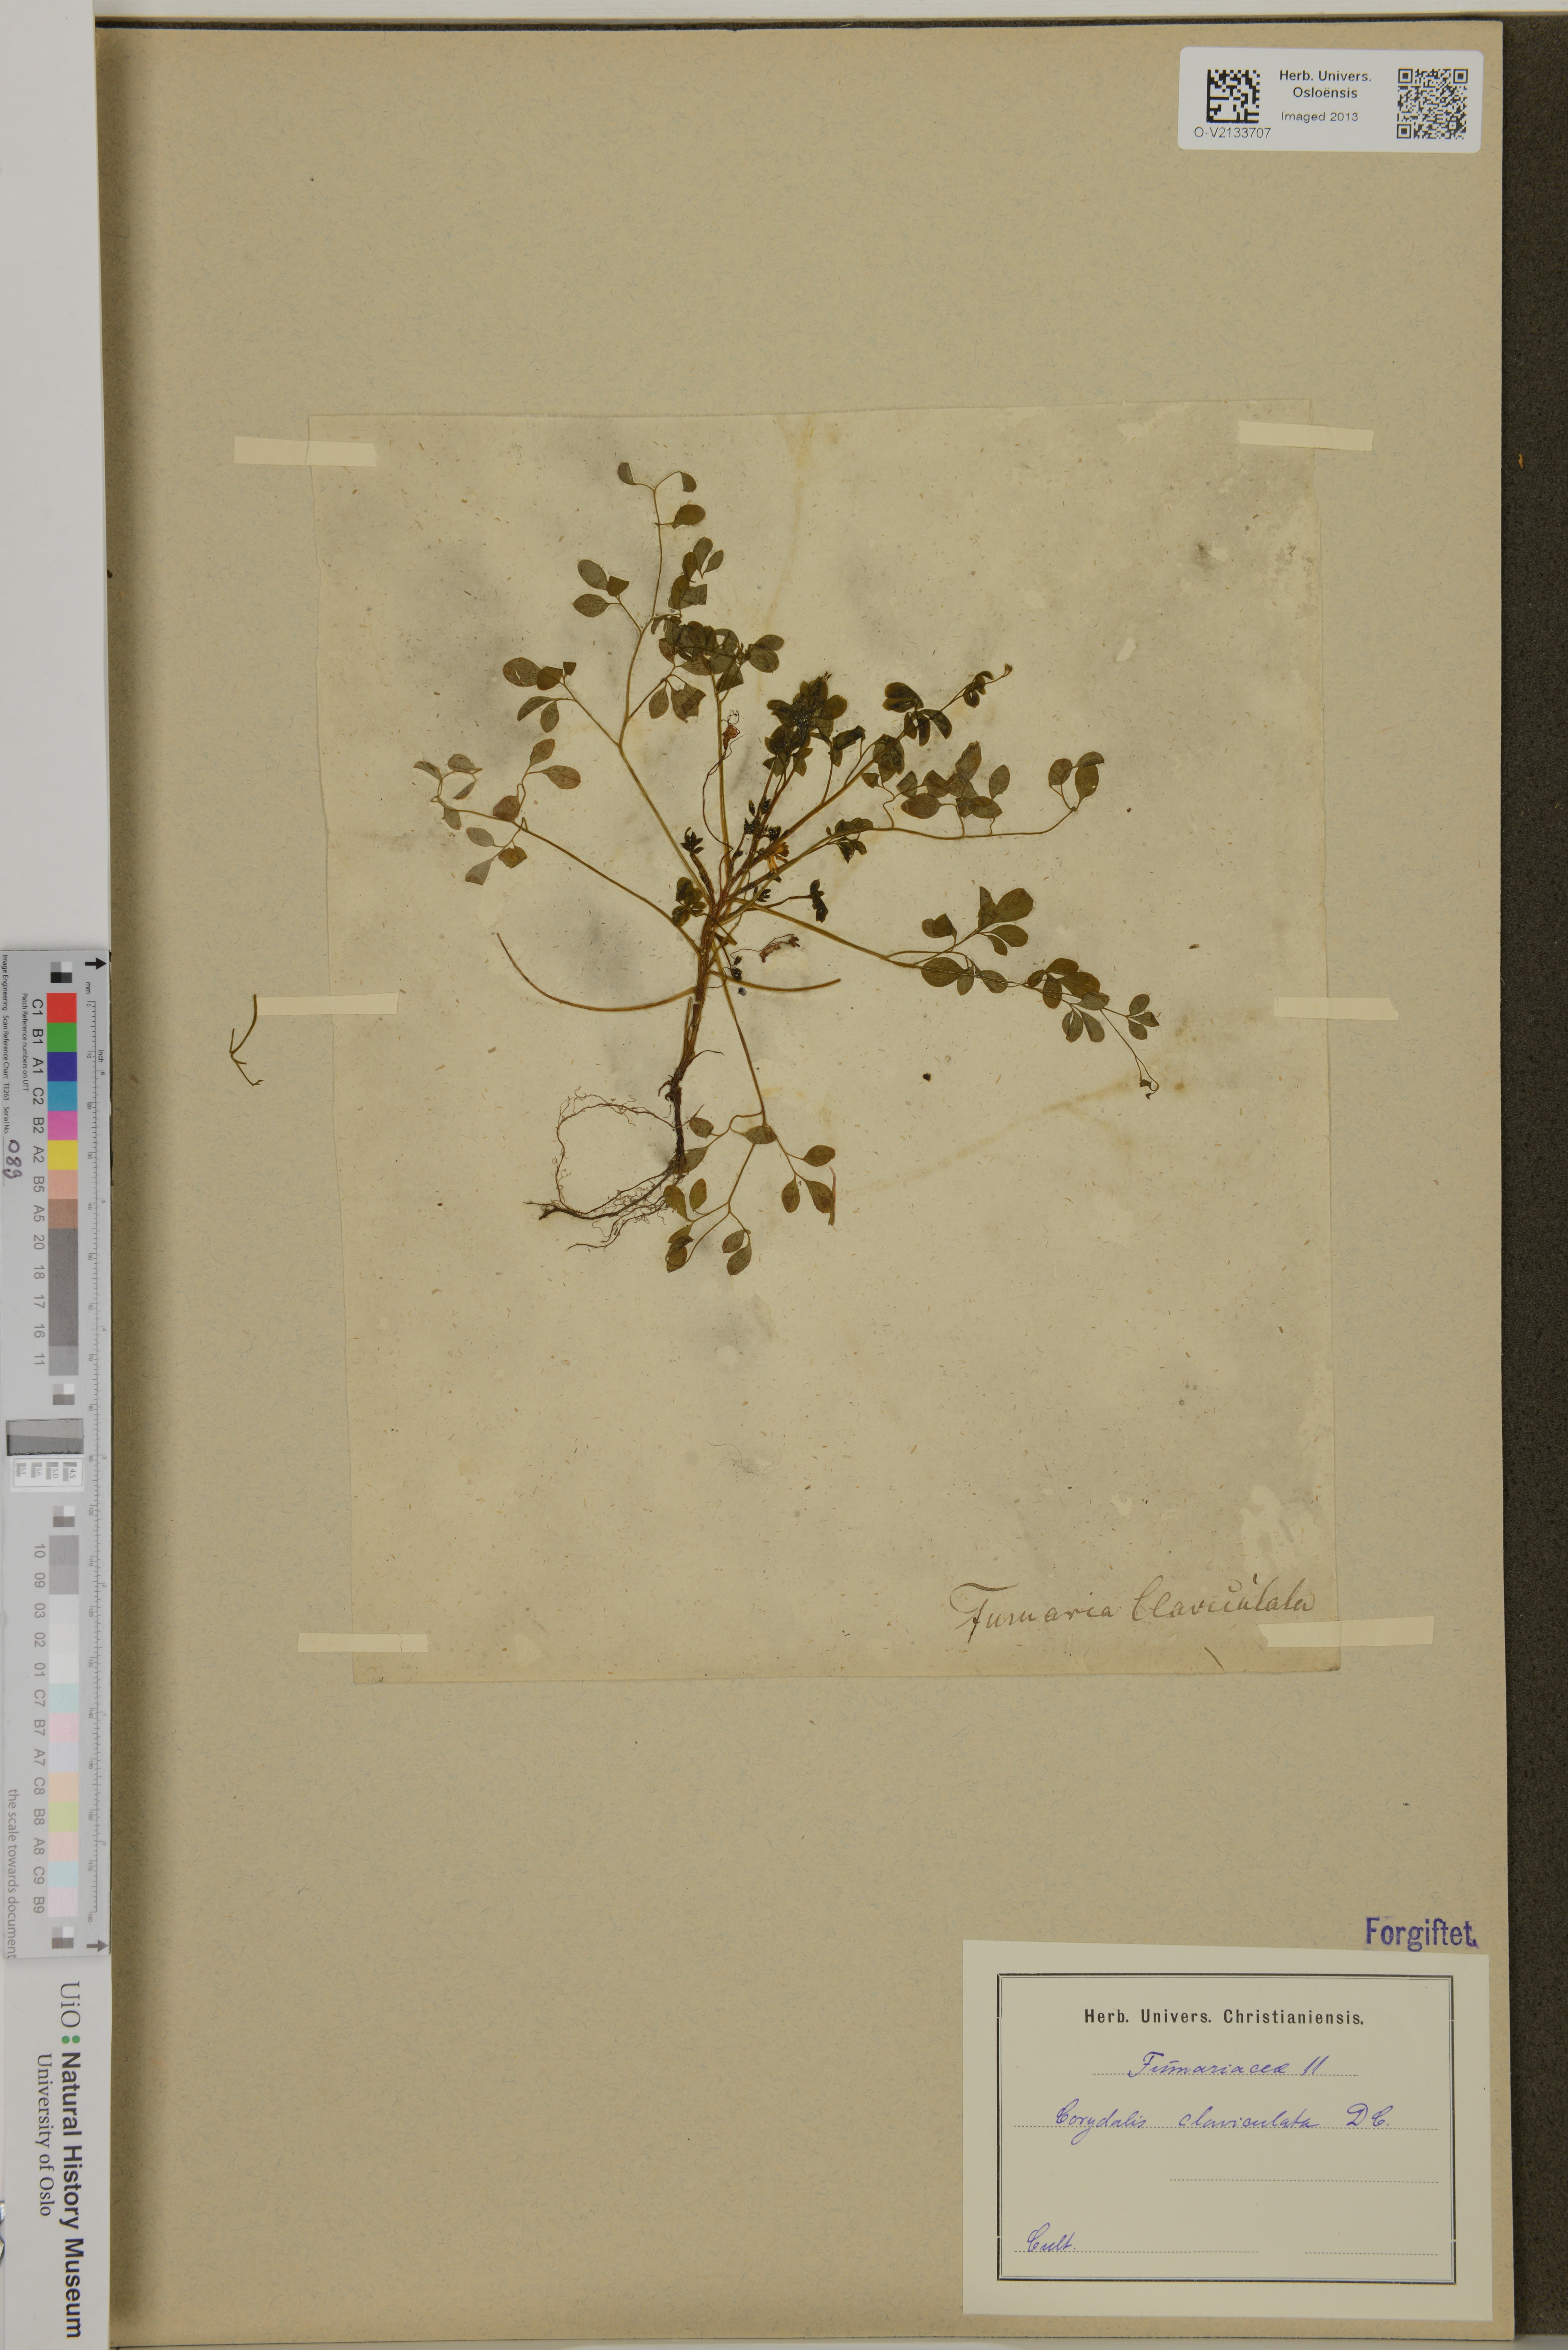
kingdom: Plantae
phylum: Tracheophyta
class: Magnoliopsida
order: Ranunculales
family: Papaveraceae
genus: Ceratocapnos
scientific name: Ceratocapnos claviculata
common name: Climbing corydalis
